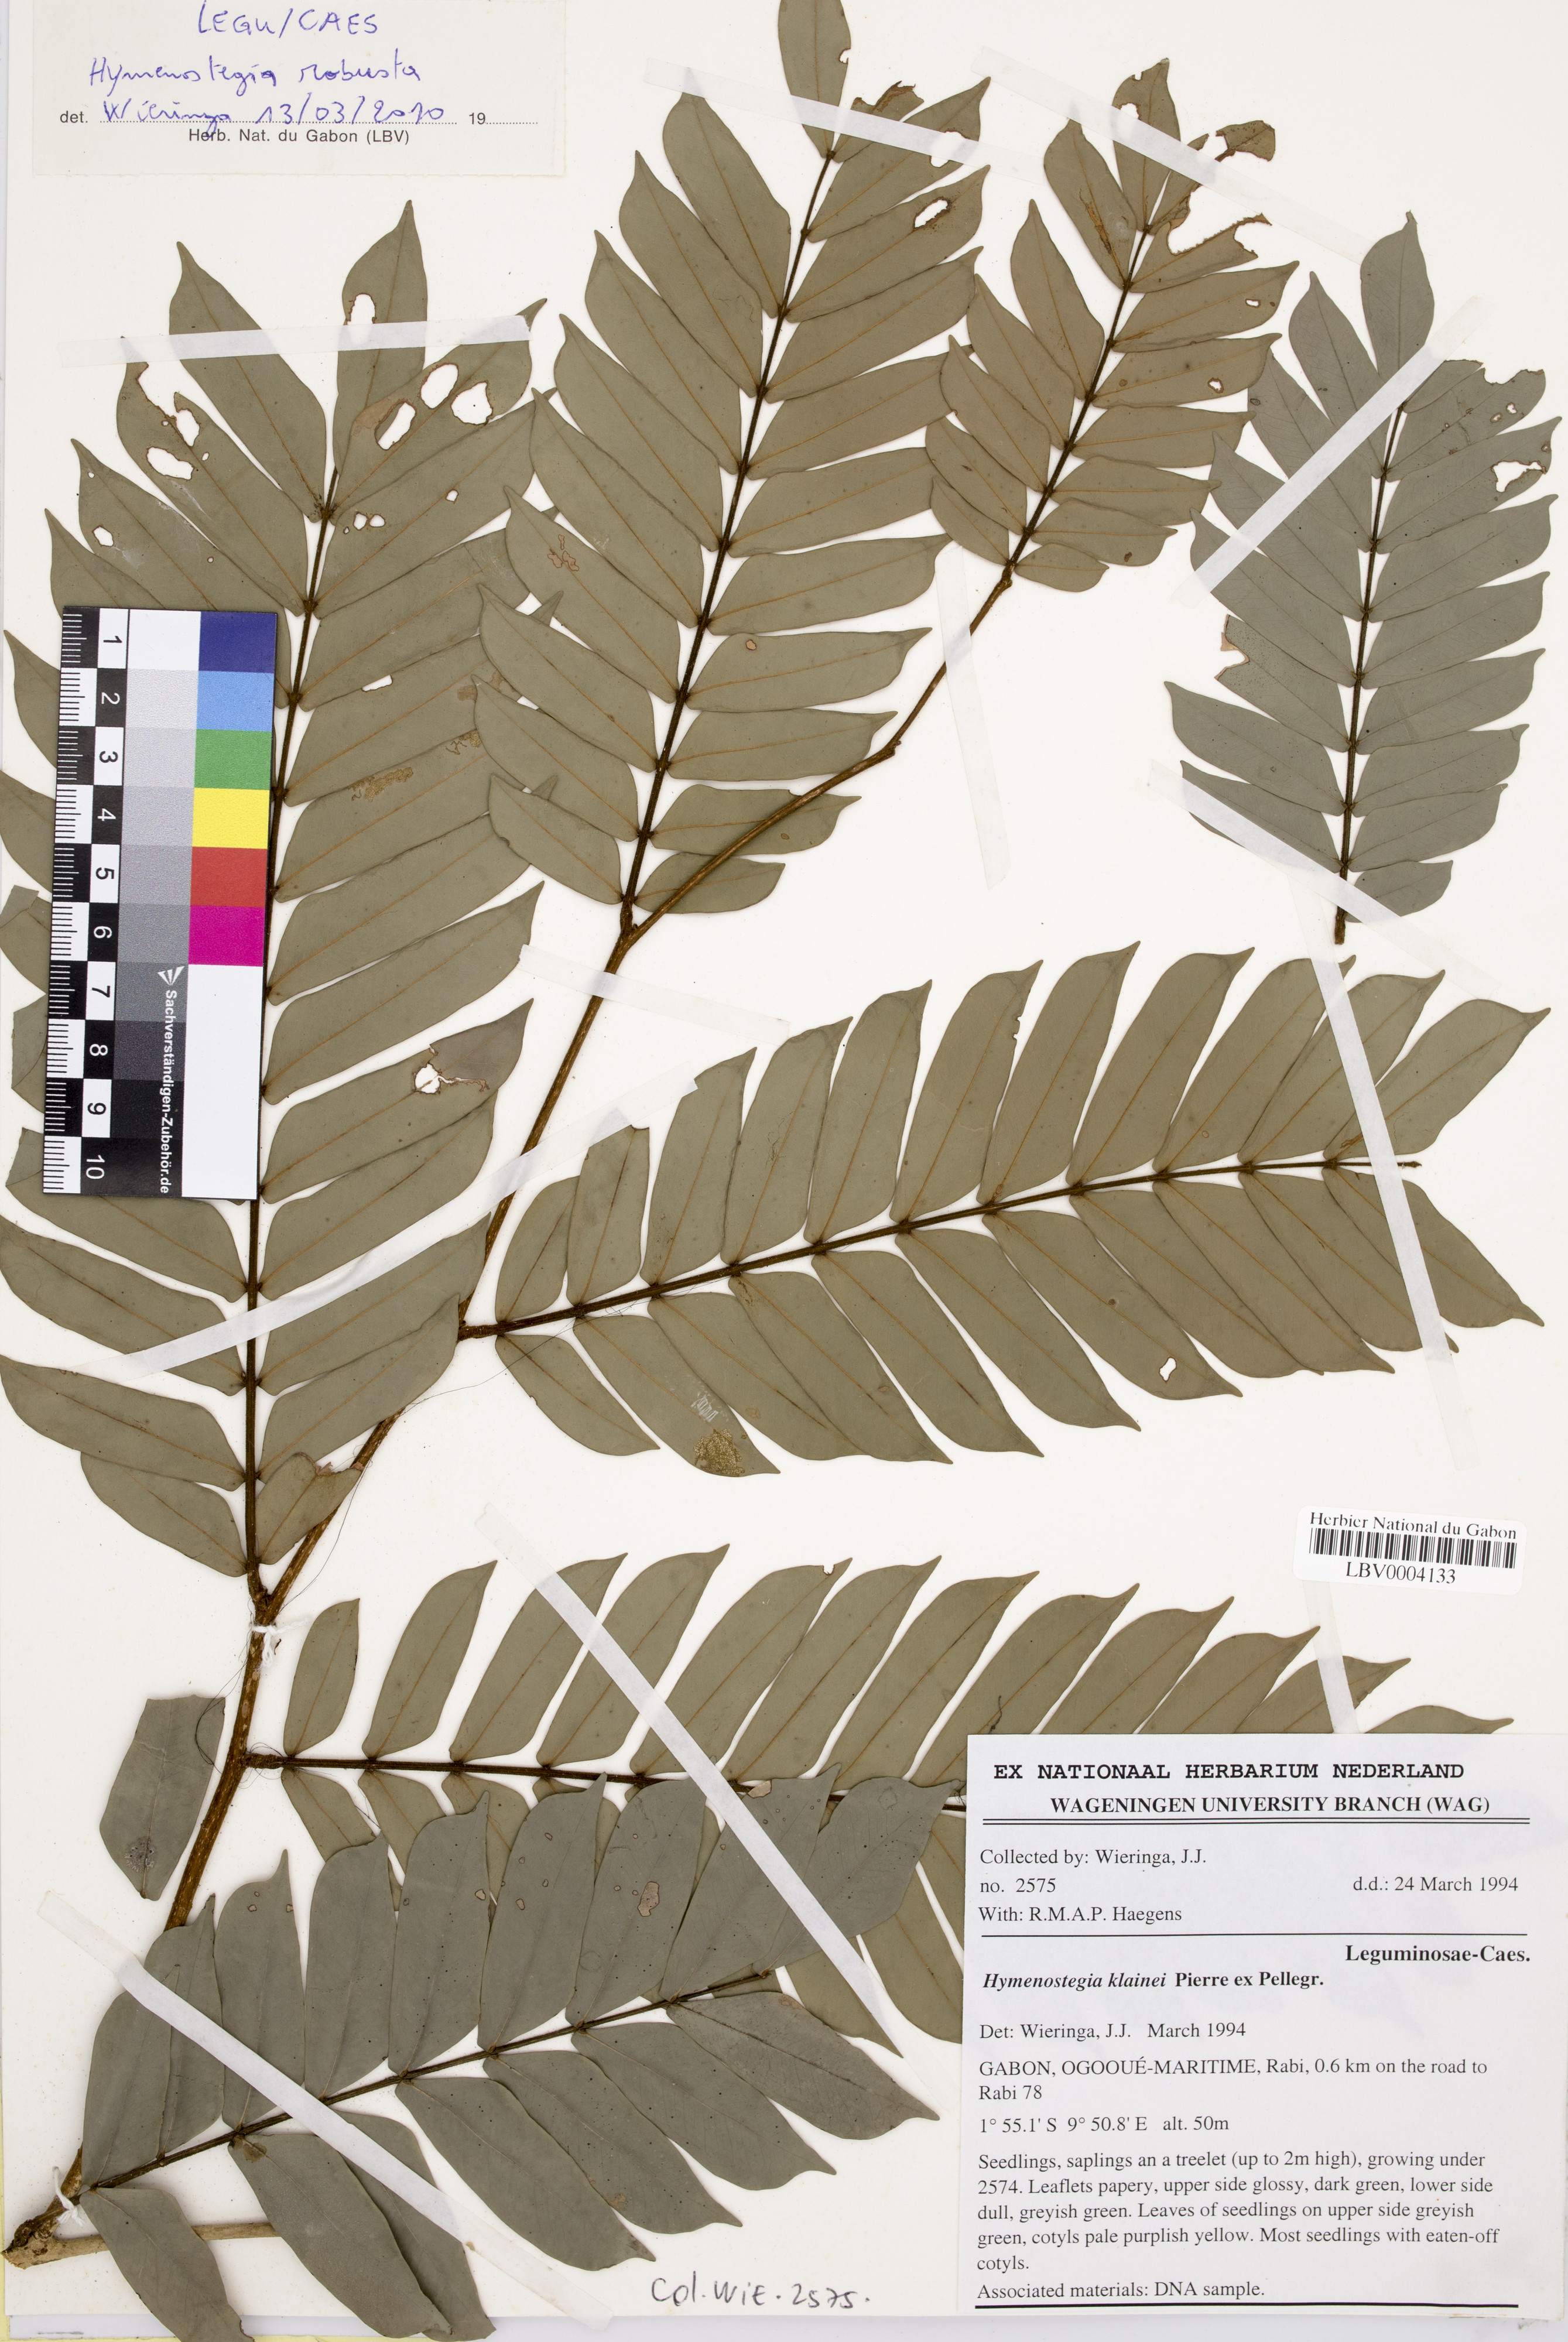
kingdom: Plantae
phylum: Tracheophyta
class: Magnoliopsida
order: Fabales
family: Fabaceae
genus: Hymenostegia
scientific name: Hymenostegia robusta
